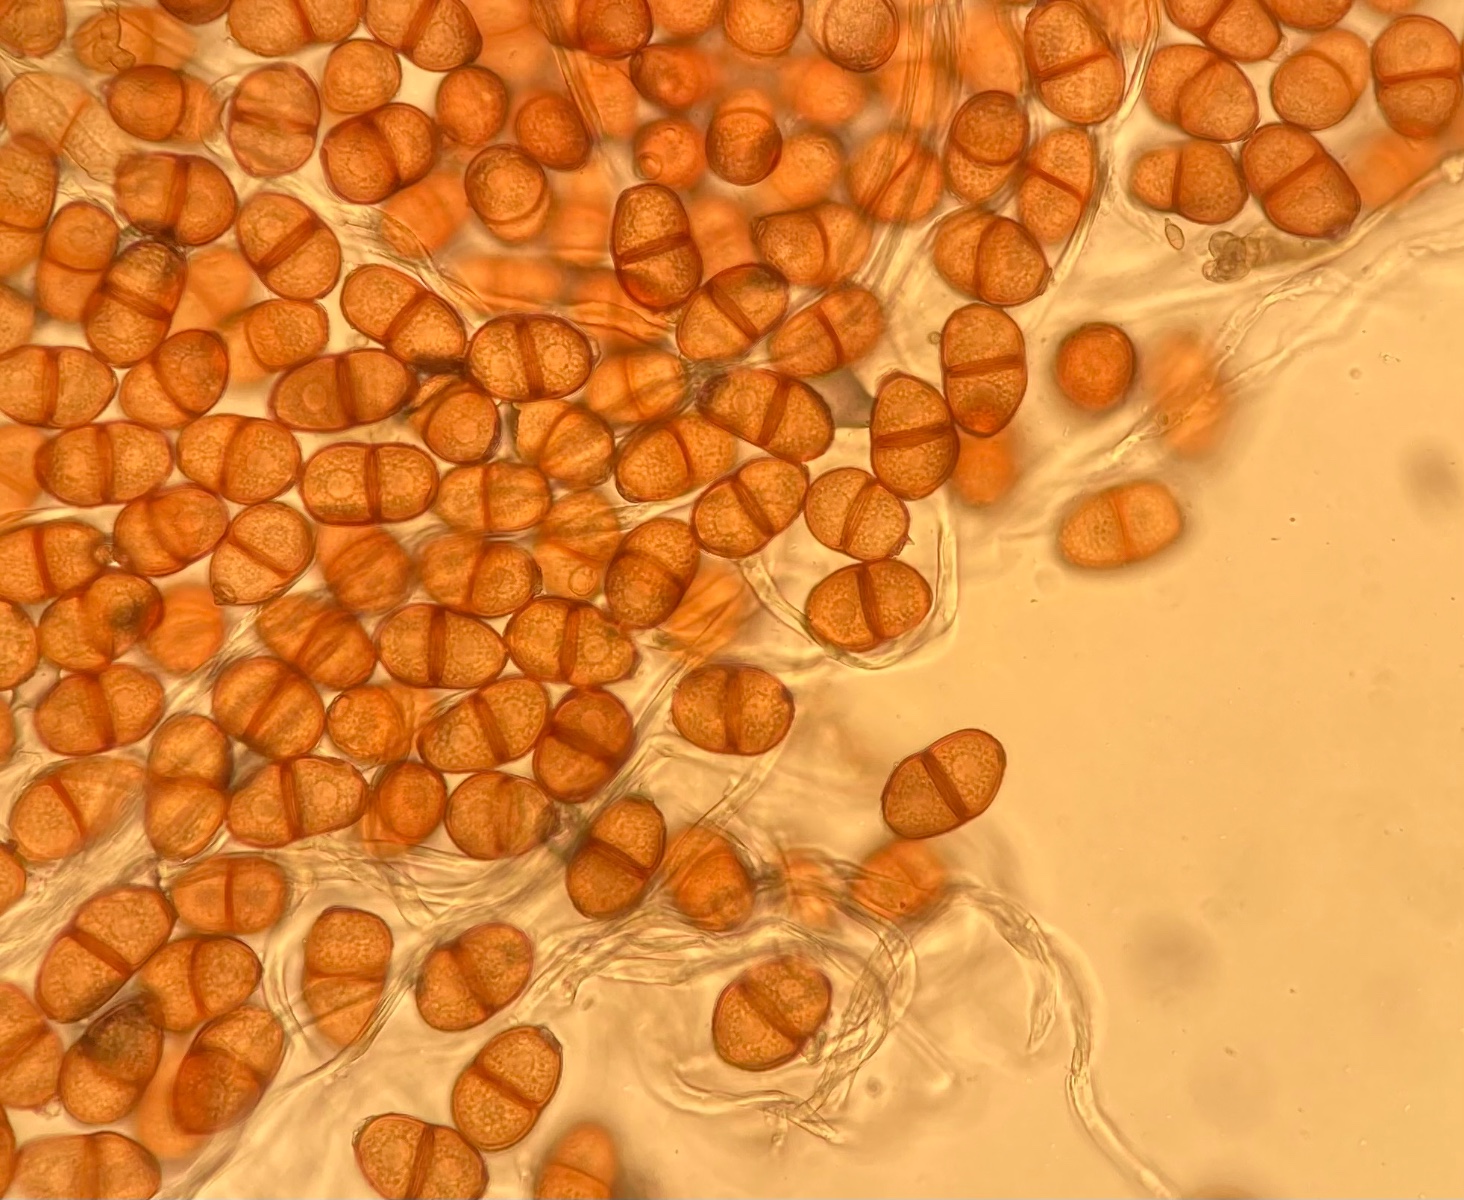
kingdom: Fungi
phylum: Basidiomycota
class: Pucciniomycetes
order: Pucciniales
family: Pucciniaceae
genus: Puccinia
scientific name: Puccinia suaveolens
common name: tidsel-tvecellerust
